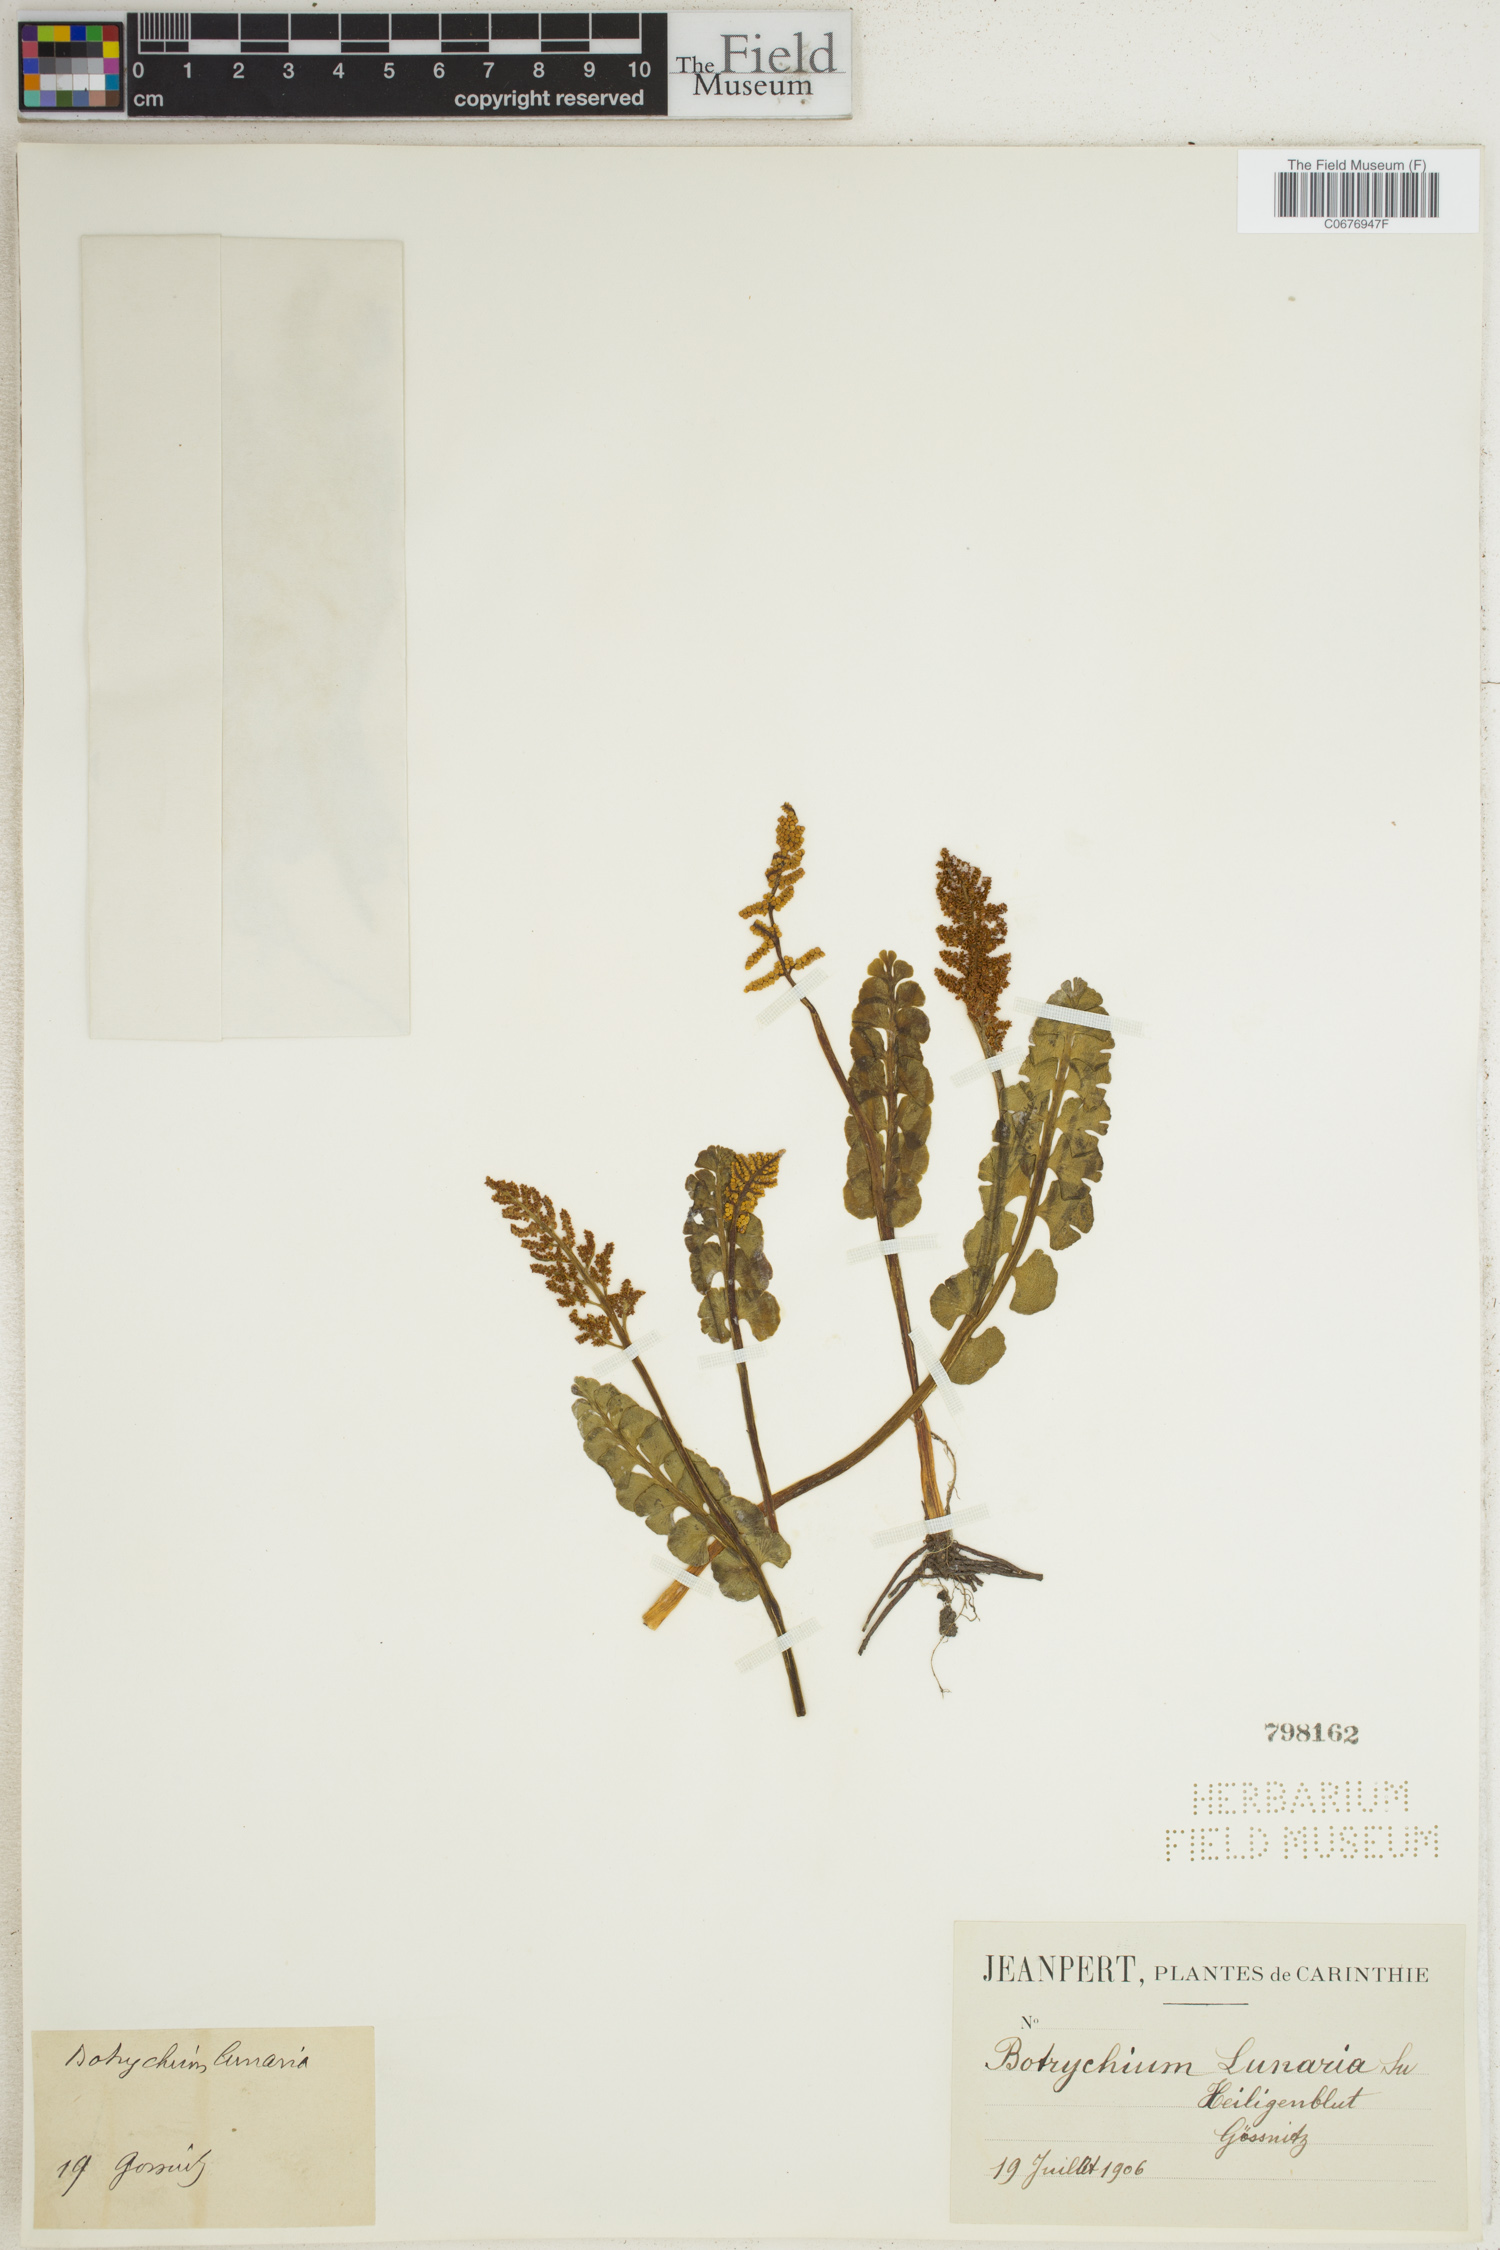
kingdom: Plantae
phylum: Tracheophyta
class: Polypodiopsida
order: Ophioglossales
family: Ophioglossaceae
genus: Botrychium
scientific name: Botrychium lunaria
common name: Moonwort
